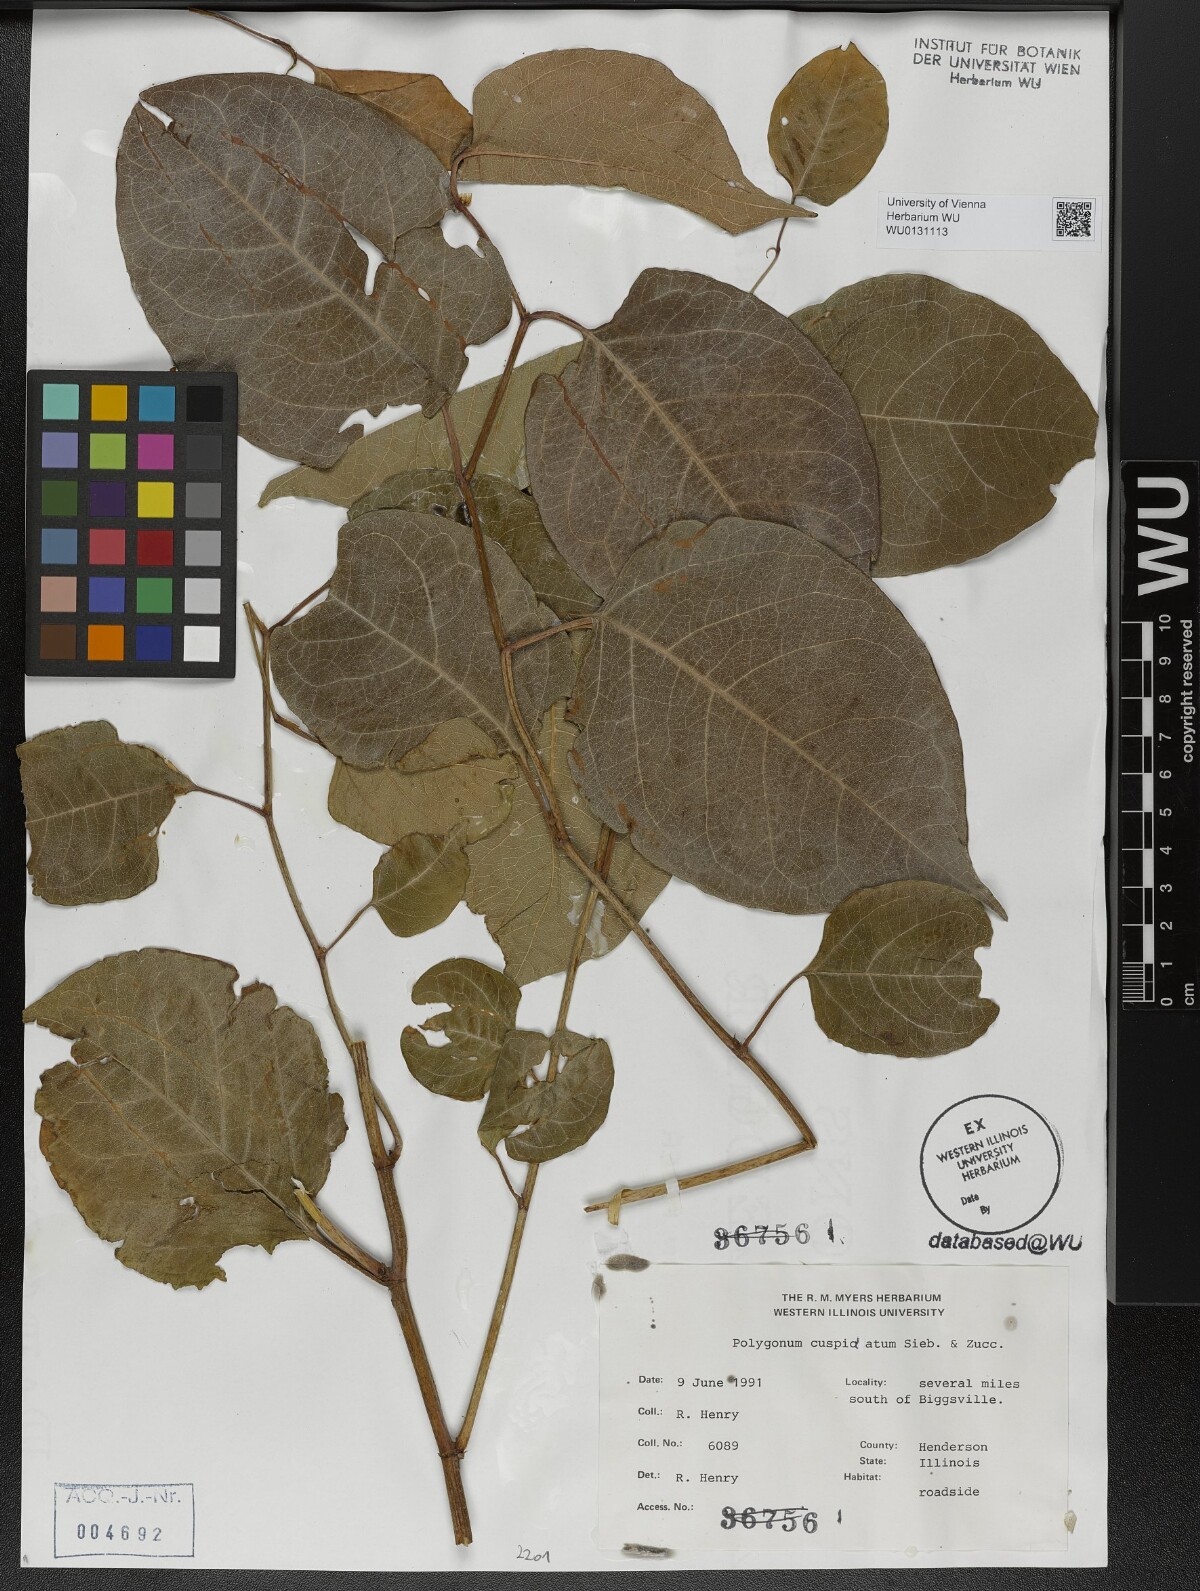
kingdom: Plantae
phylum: Tracheophyta
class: Magnoliopsida
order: Caryophyllales
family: Polygonaceae
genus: Reynoutria
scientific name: Reynoutria japonica
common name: Japanese knotweed
